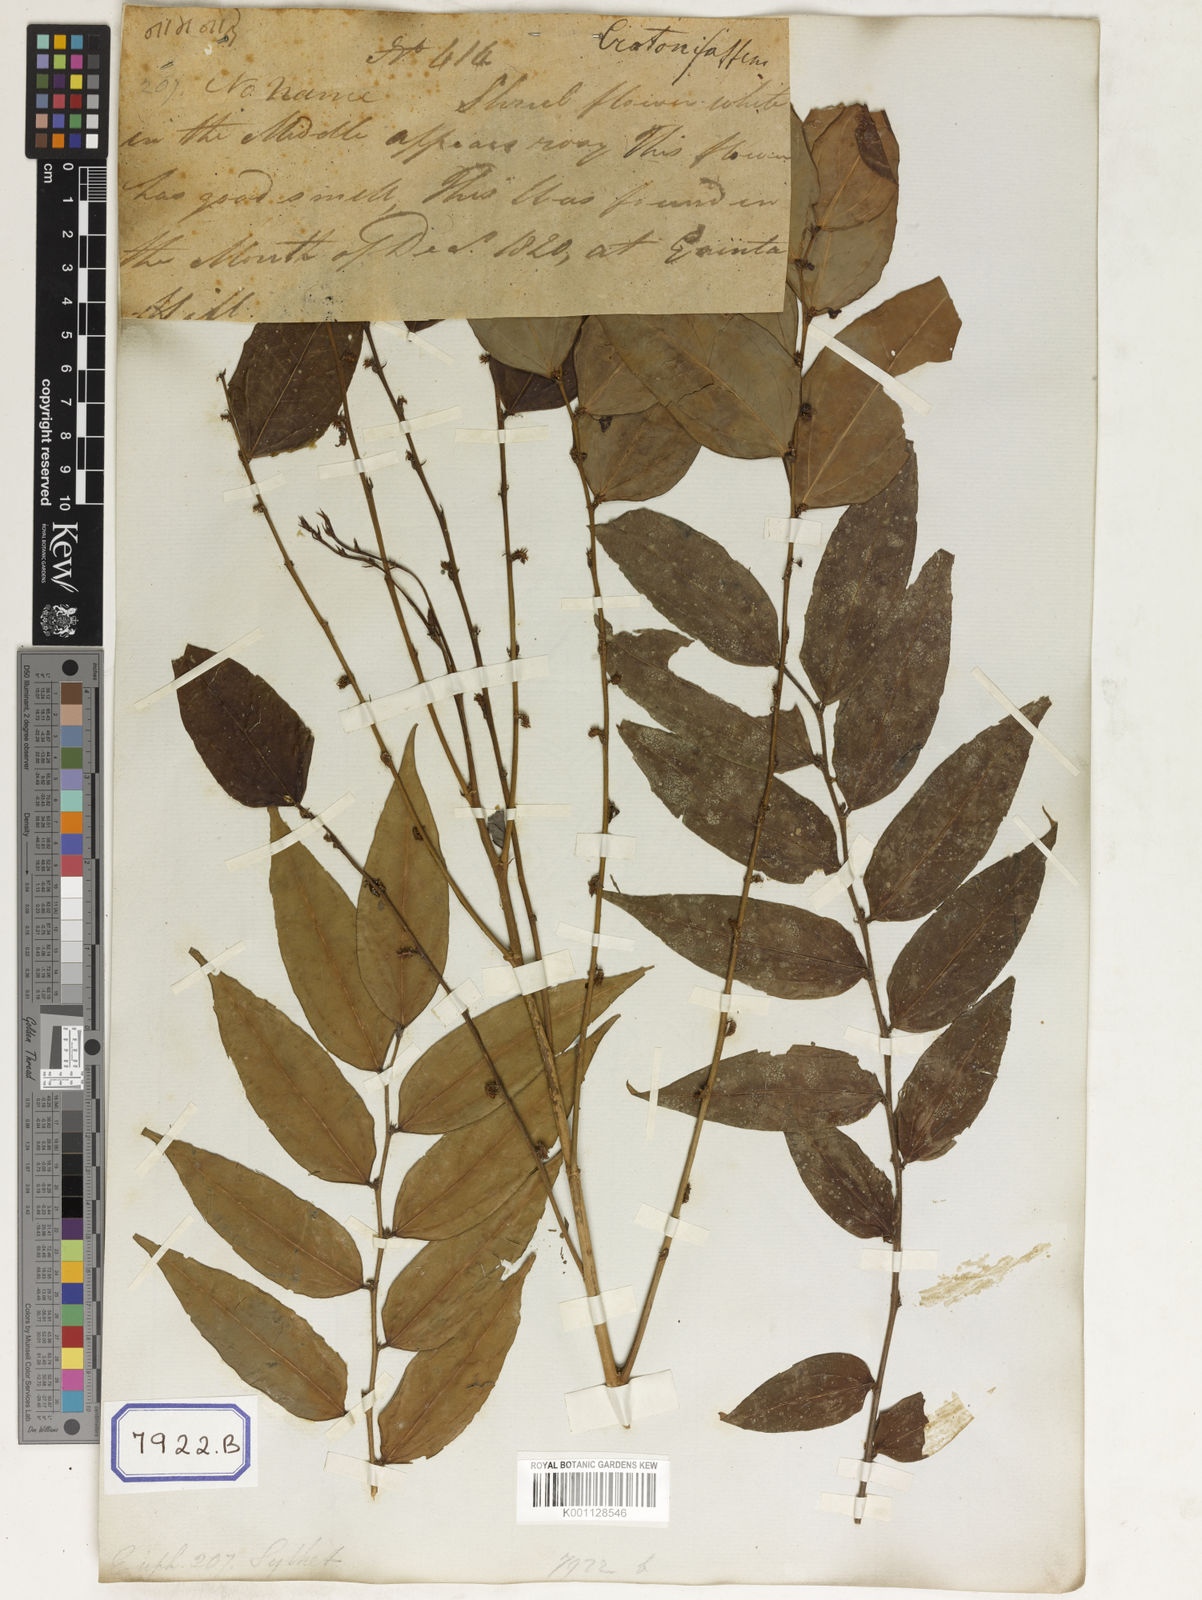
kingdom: Plantae
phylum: Tracheophyta
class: Magnoliopsida
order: Malpighiales
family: Phyllanthaceae
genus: Phyllanthus
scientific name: Phyllanthus
